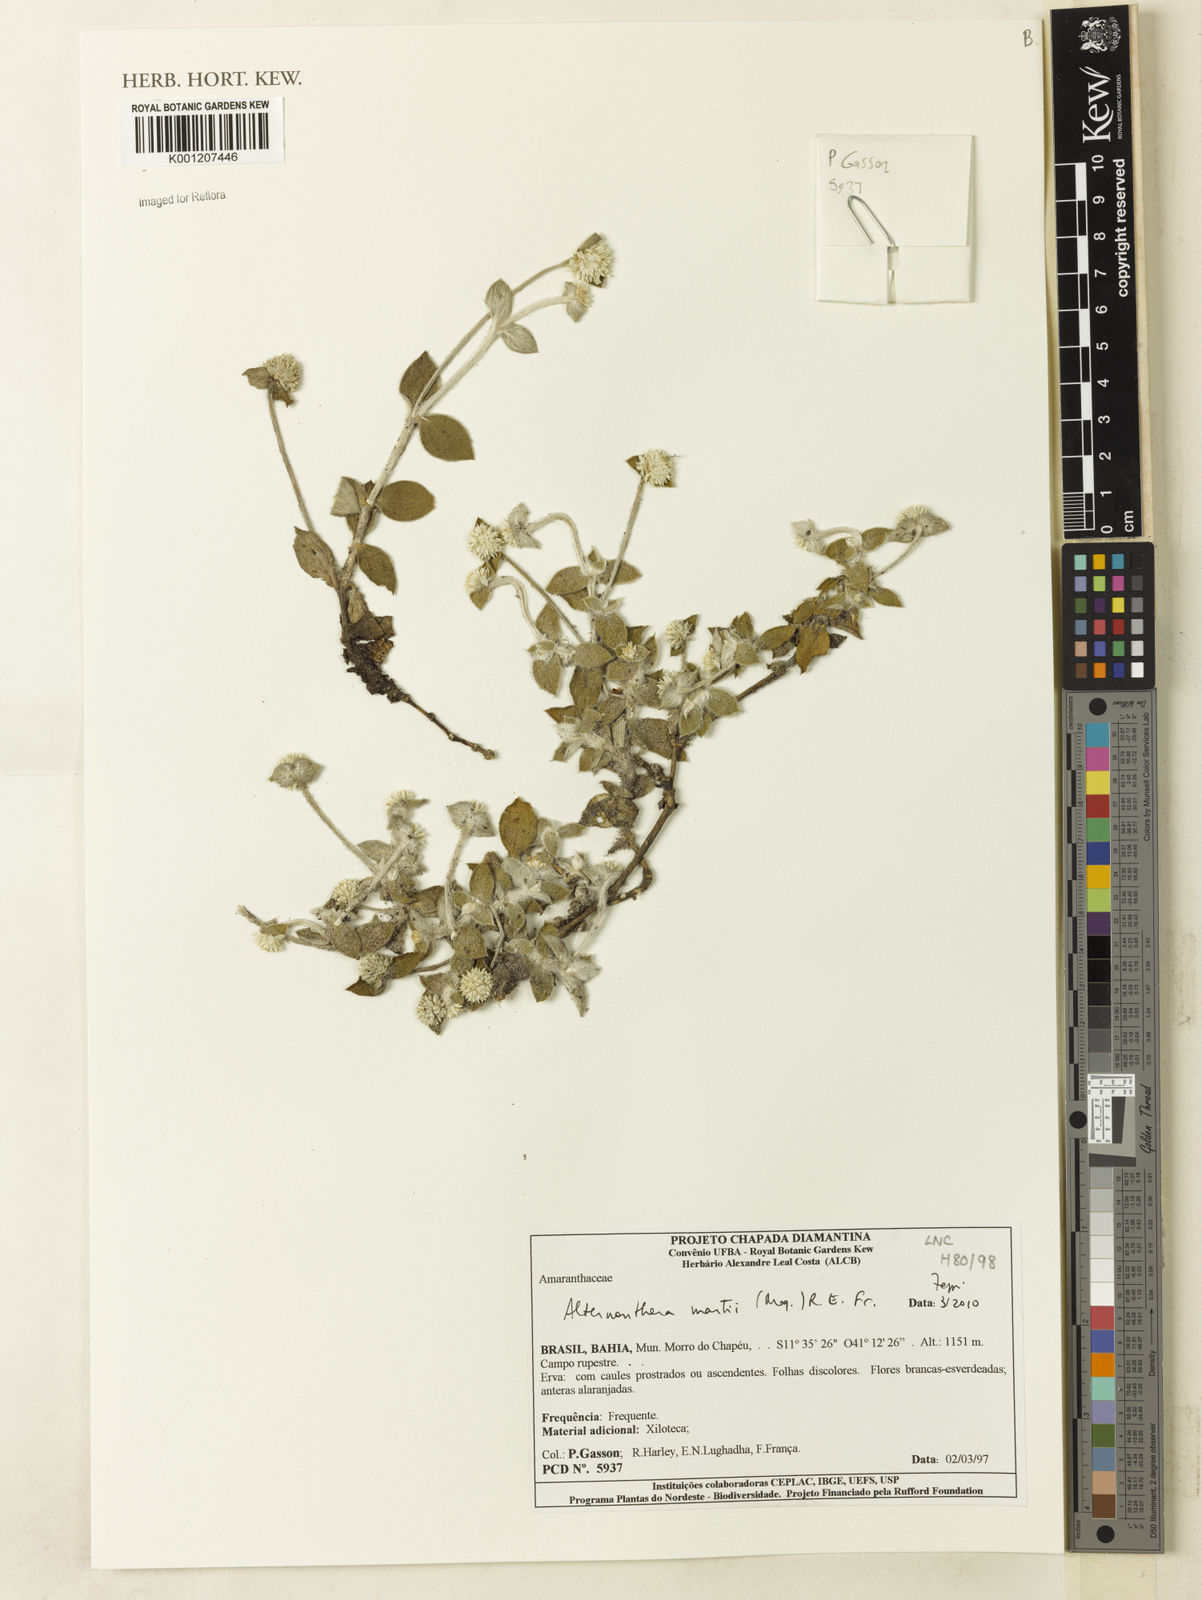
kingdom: Plantae
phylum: Tracheophyta
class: Magnoliopsida
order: Caryophyllales
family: Amaranthaceae
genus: Alternanthera
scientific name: Alternanthera martii
